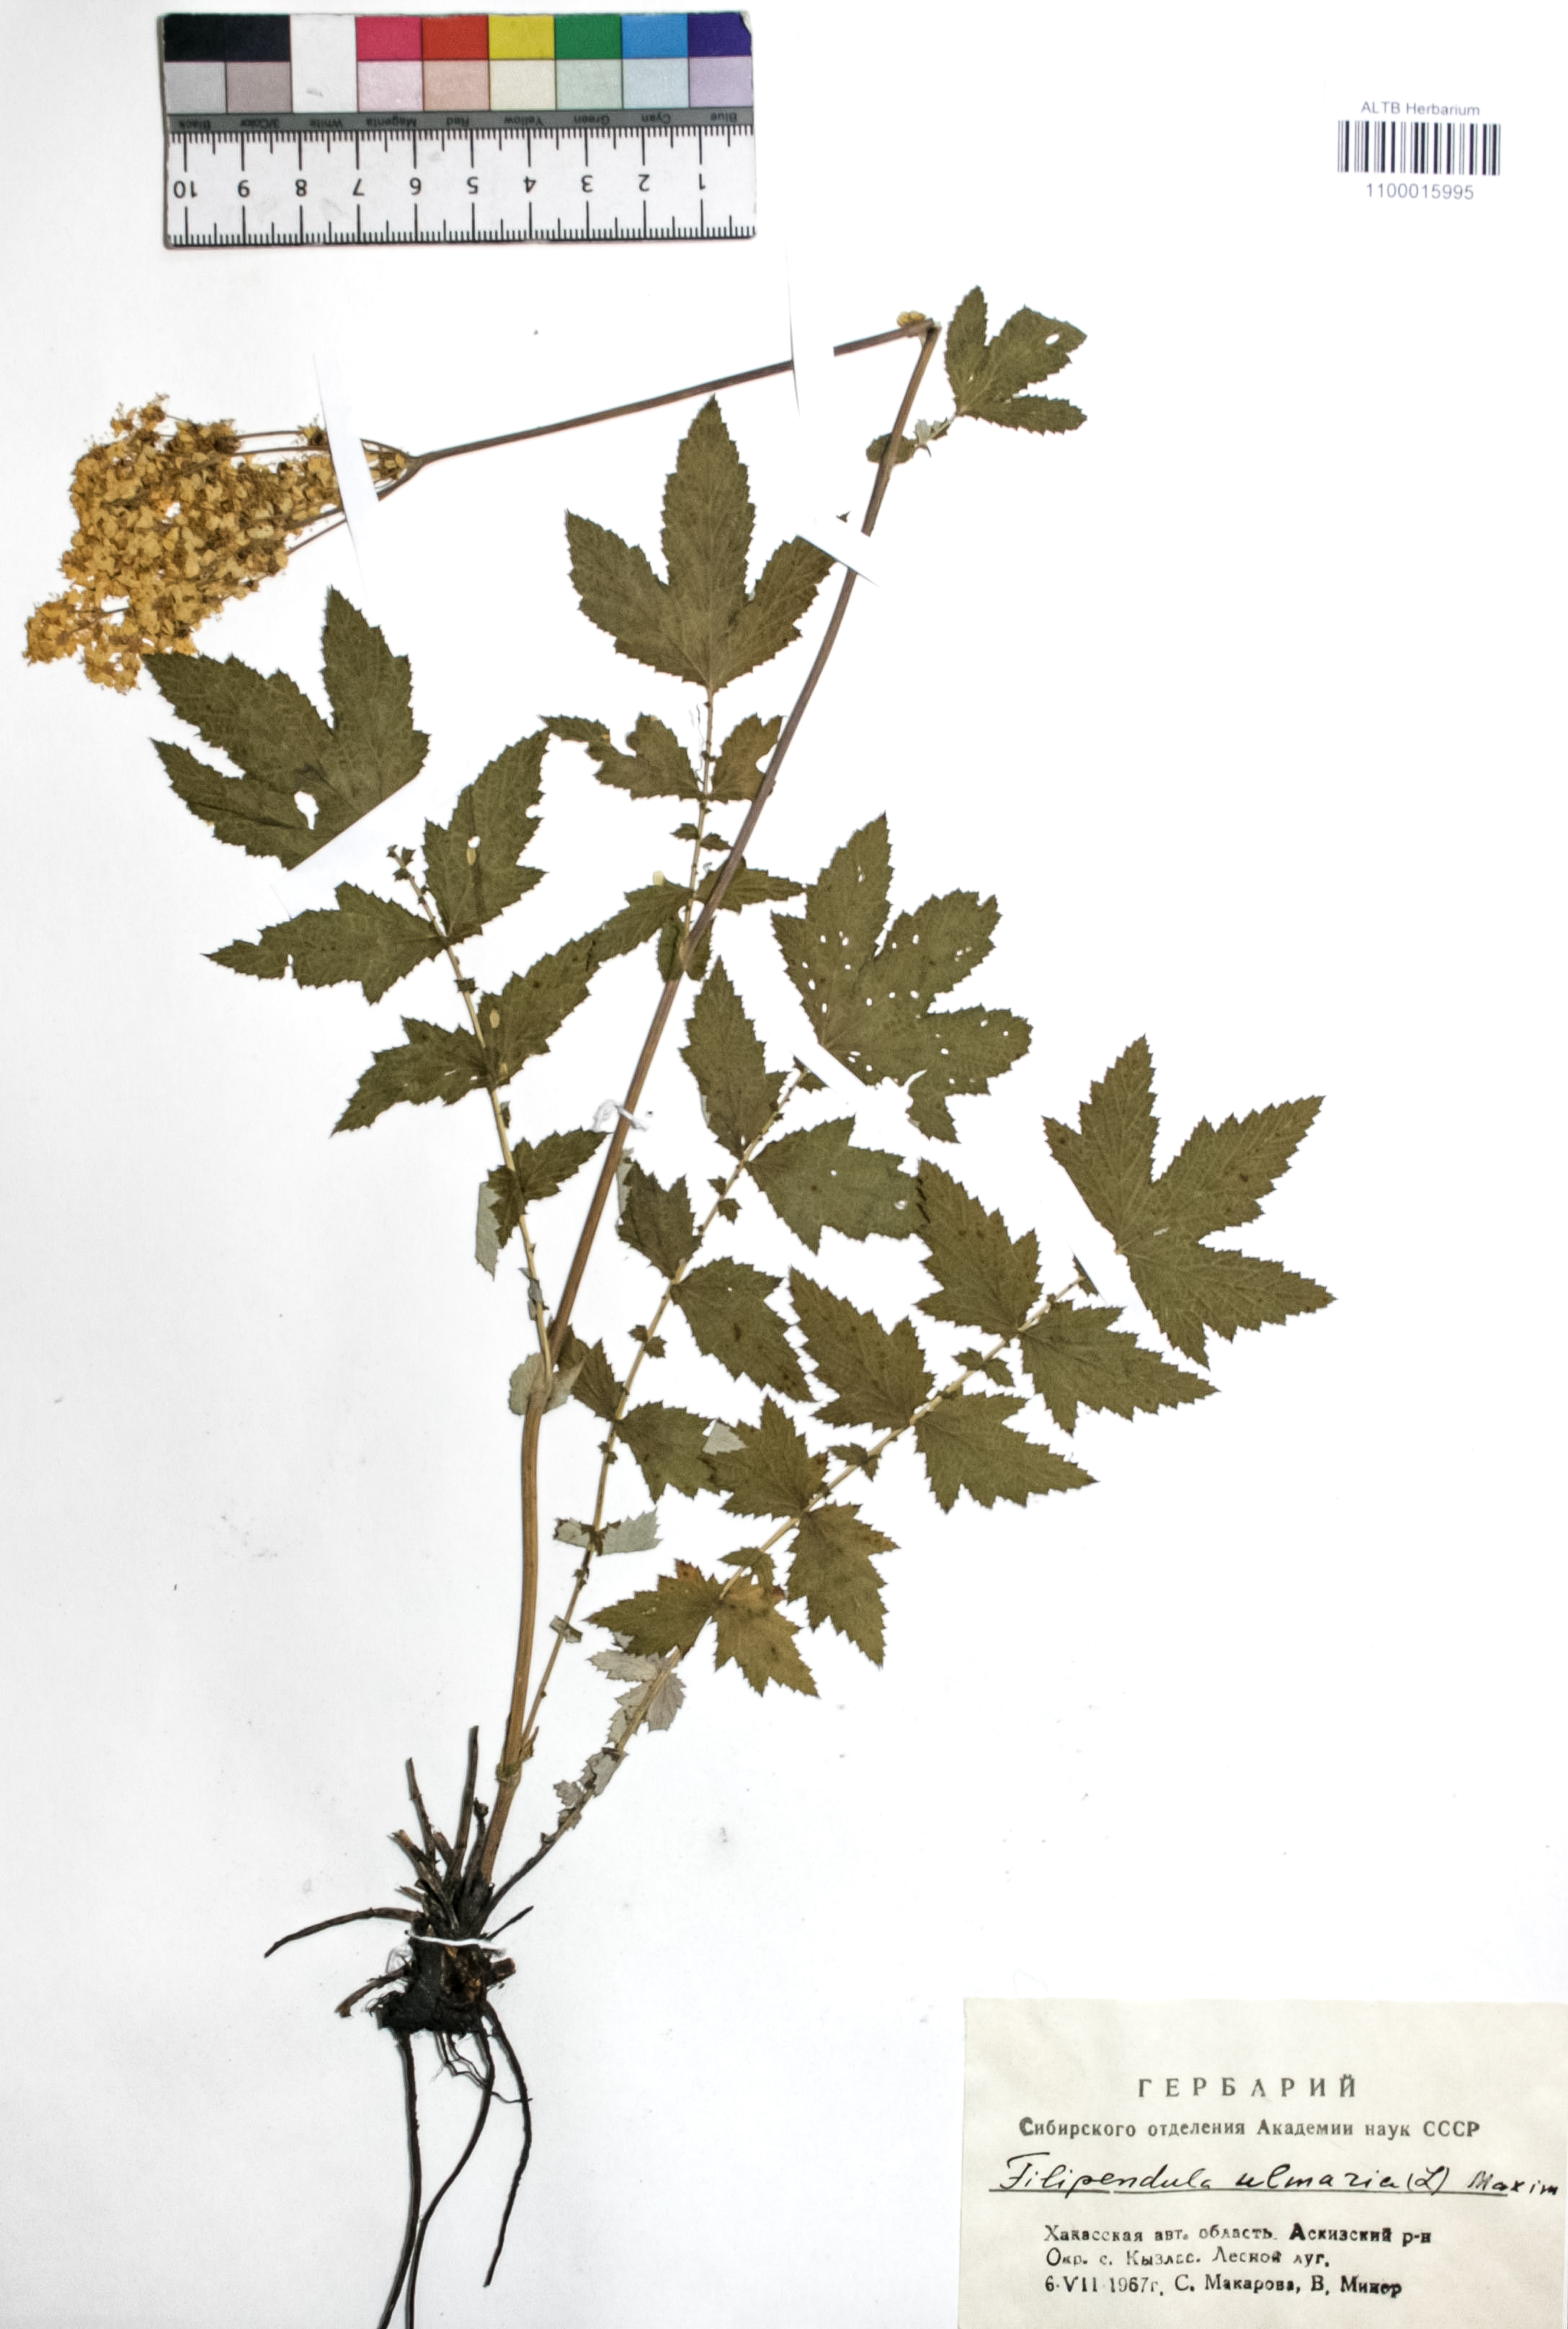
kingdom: Plantae
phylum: Tracheophyta
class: Magnoliopsida
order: Rosales
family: Rosaceae
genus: Filipendula
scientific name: Filipendula ulmaria
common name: Meadowsweet
